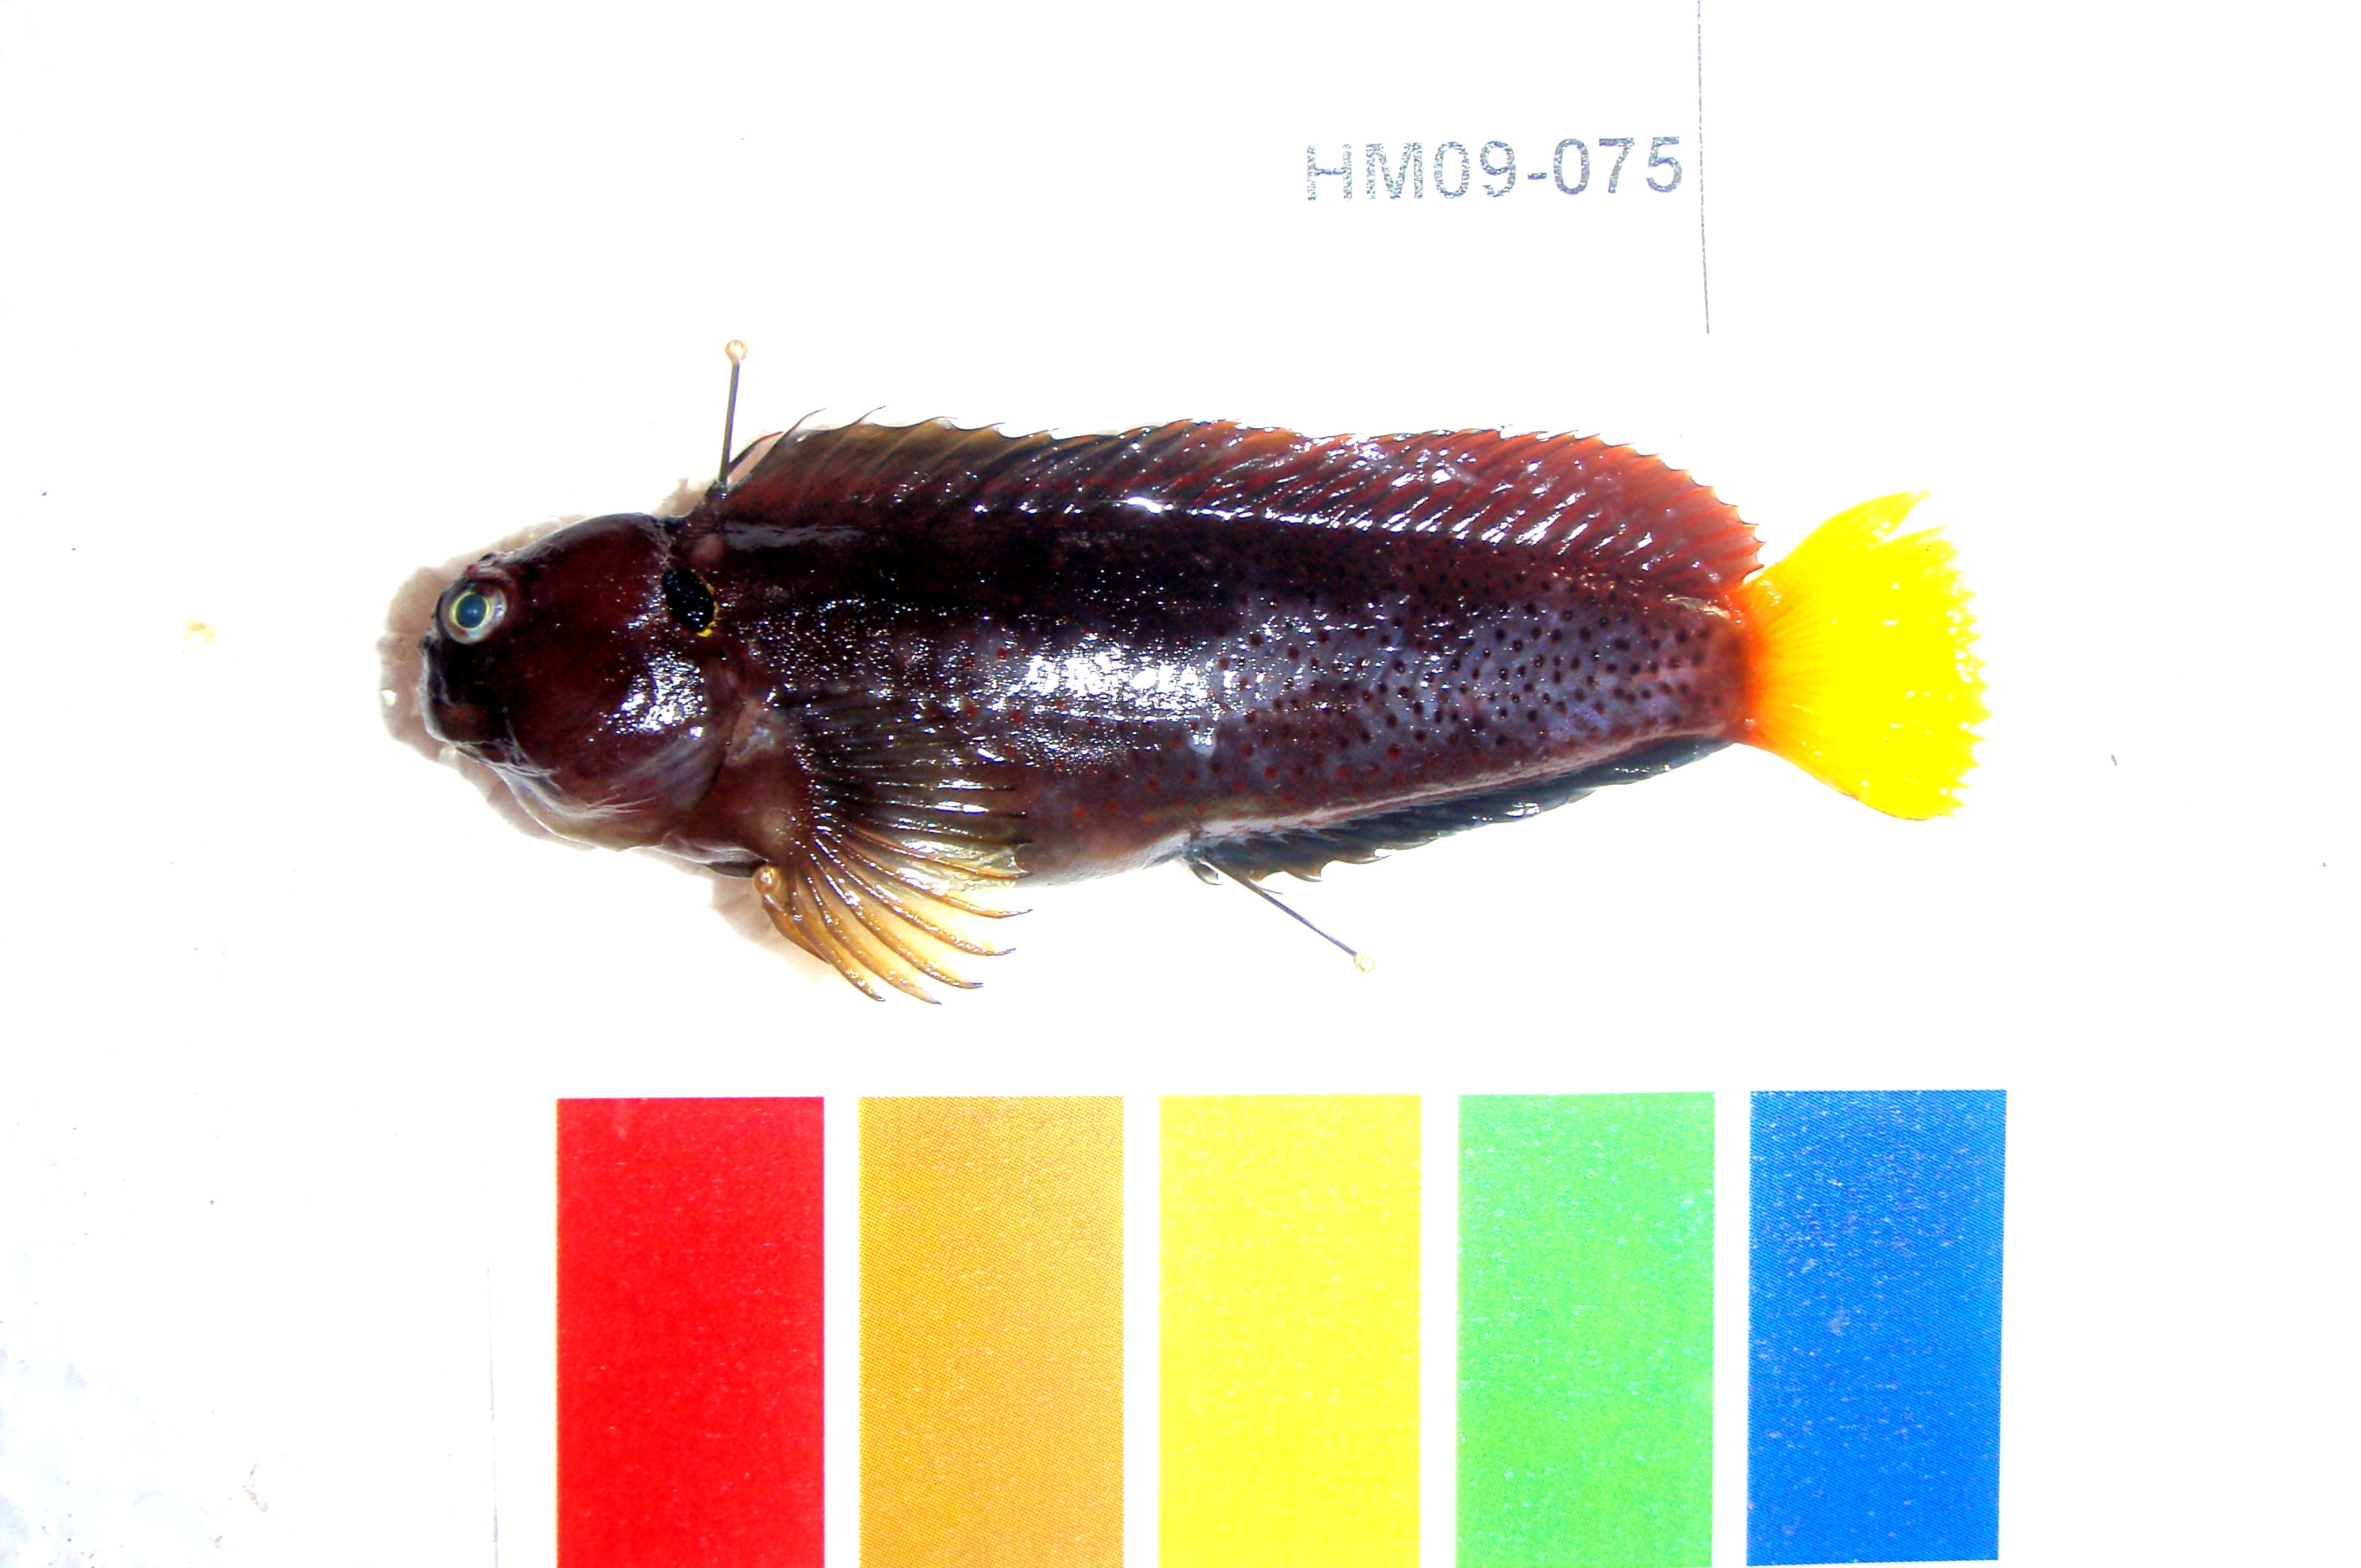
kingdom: Animalia
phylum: Chordata
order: Perciformes
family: Blenniidae
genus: Cirripectes
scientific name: Cirripectes heemstraorum
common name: Yellowtail blenny
